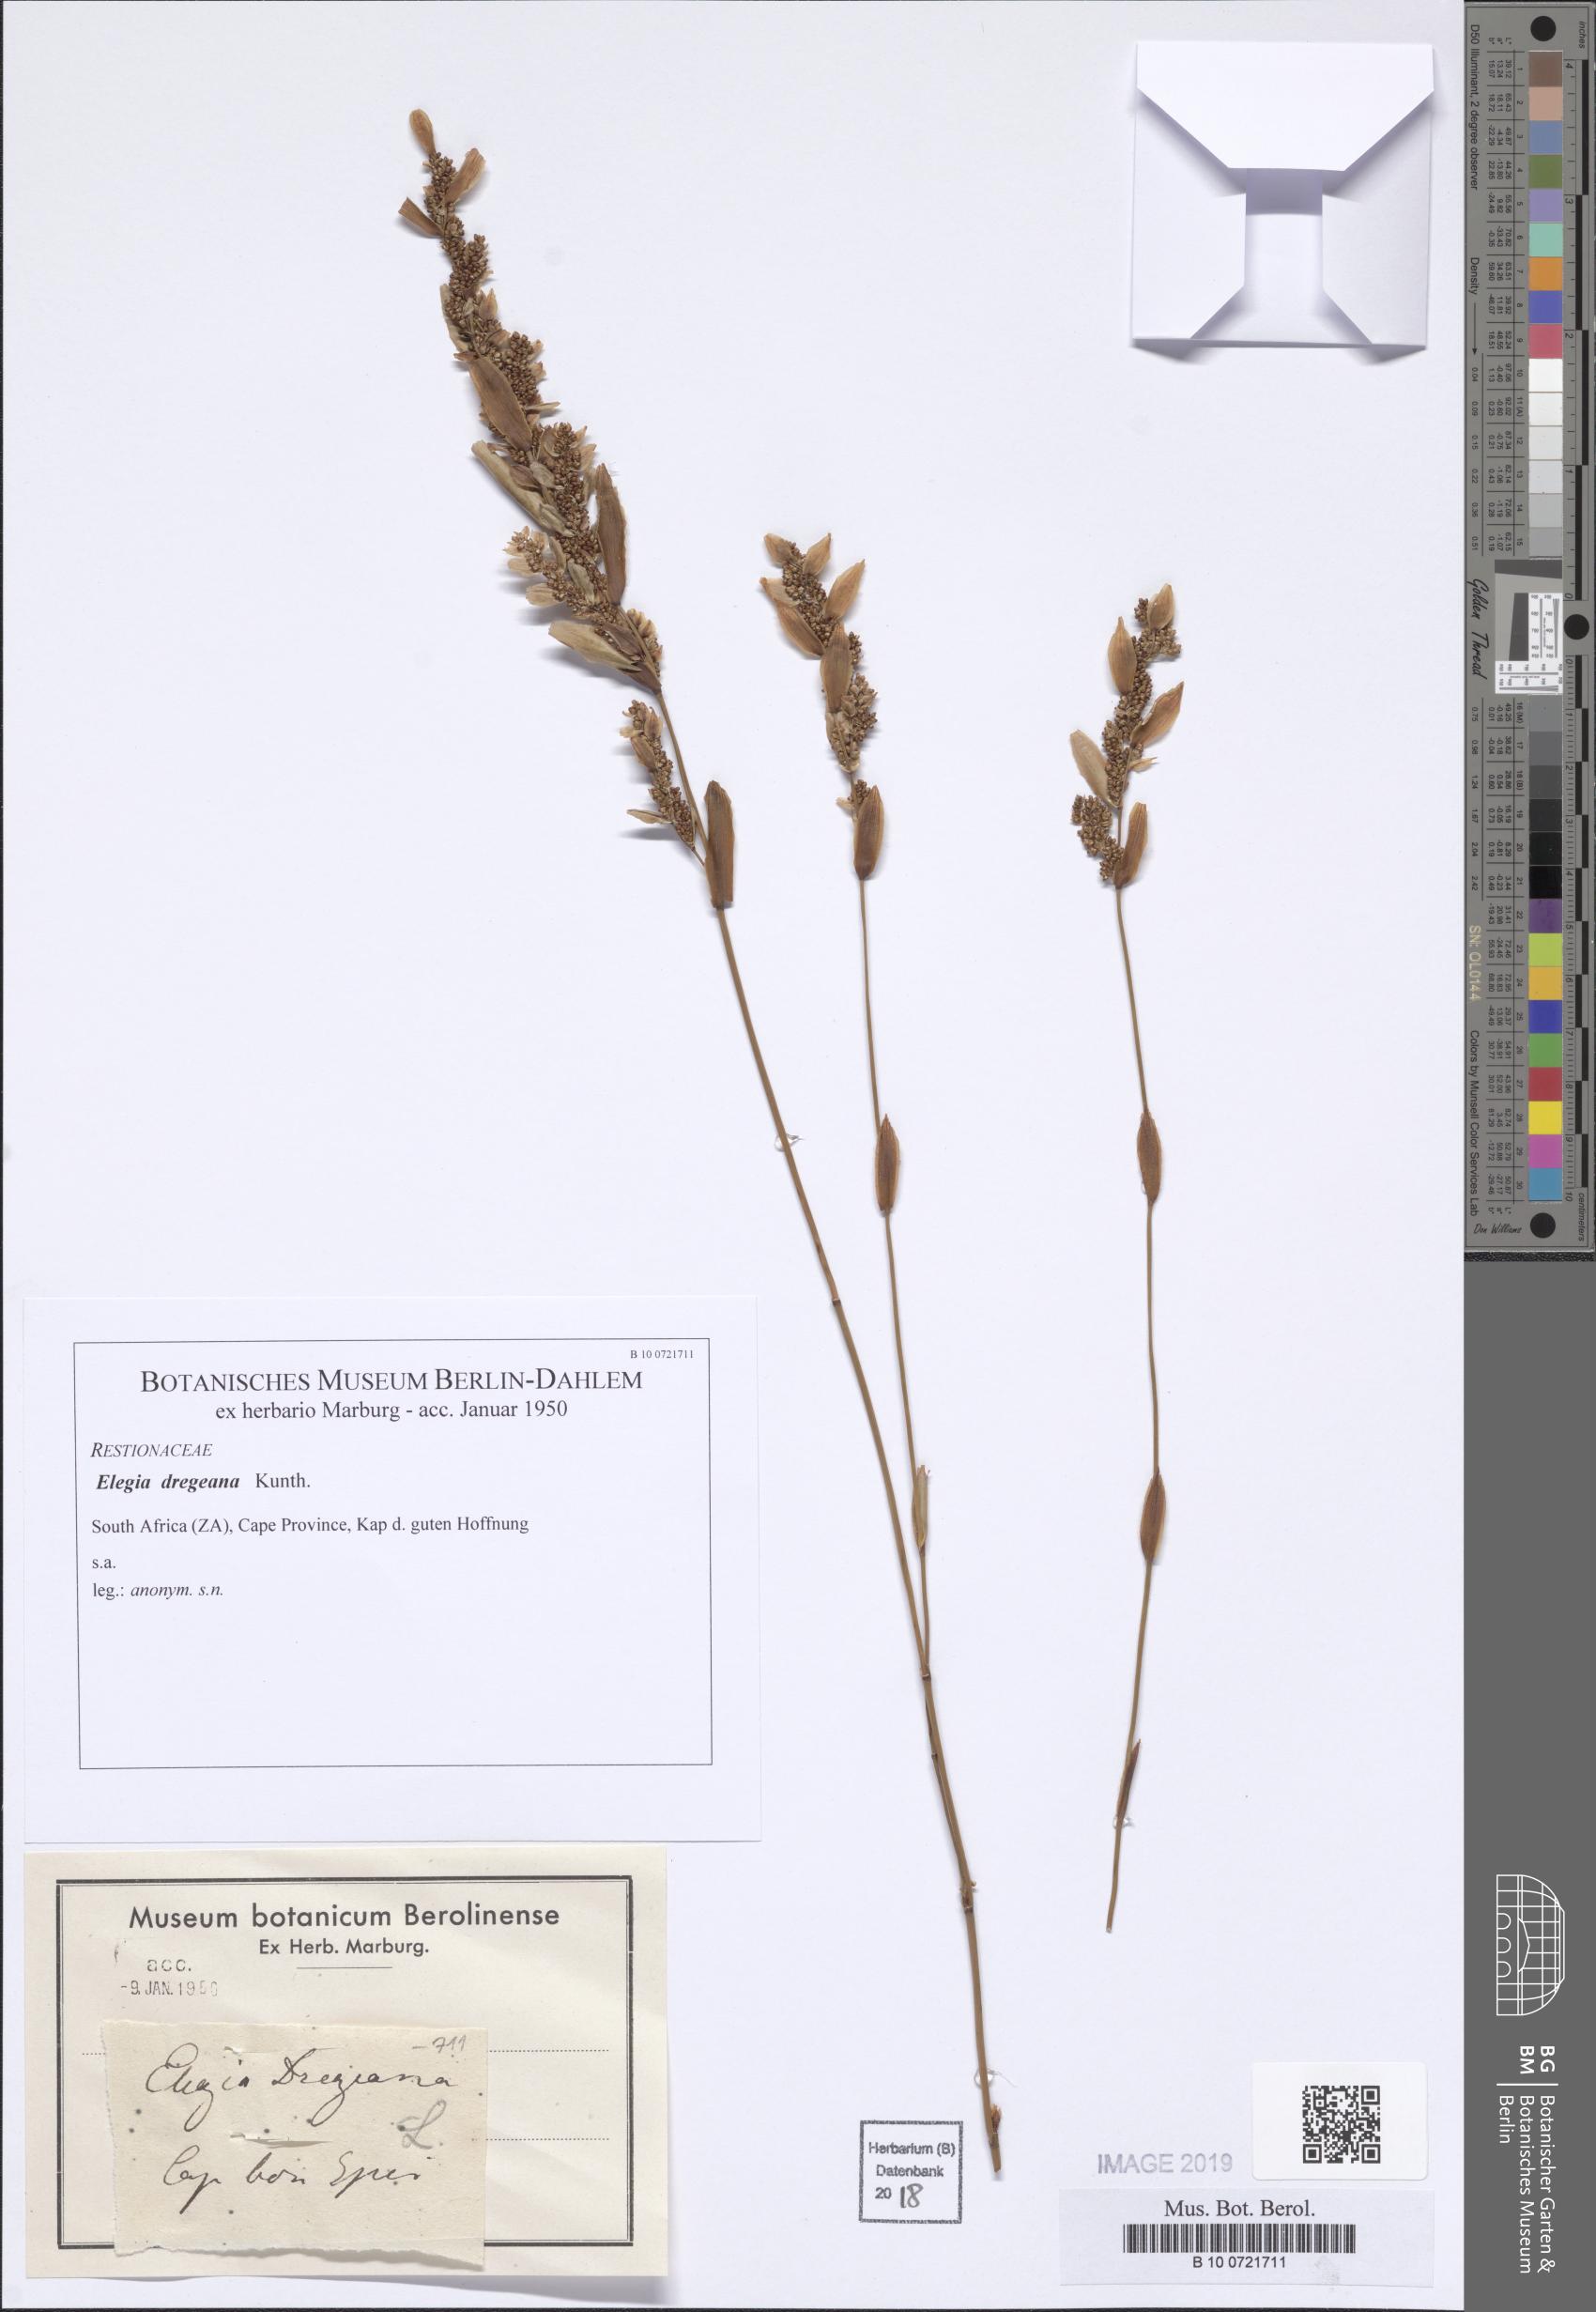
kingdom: Plantae
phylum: Tracheophyta
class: Liliopsida
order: Poales
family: Restionaceae
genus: Elegia
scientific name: Elegia asperiflora
